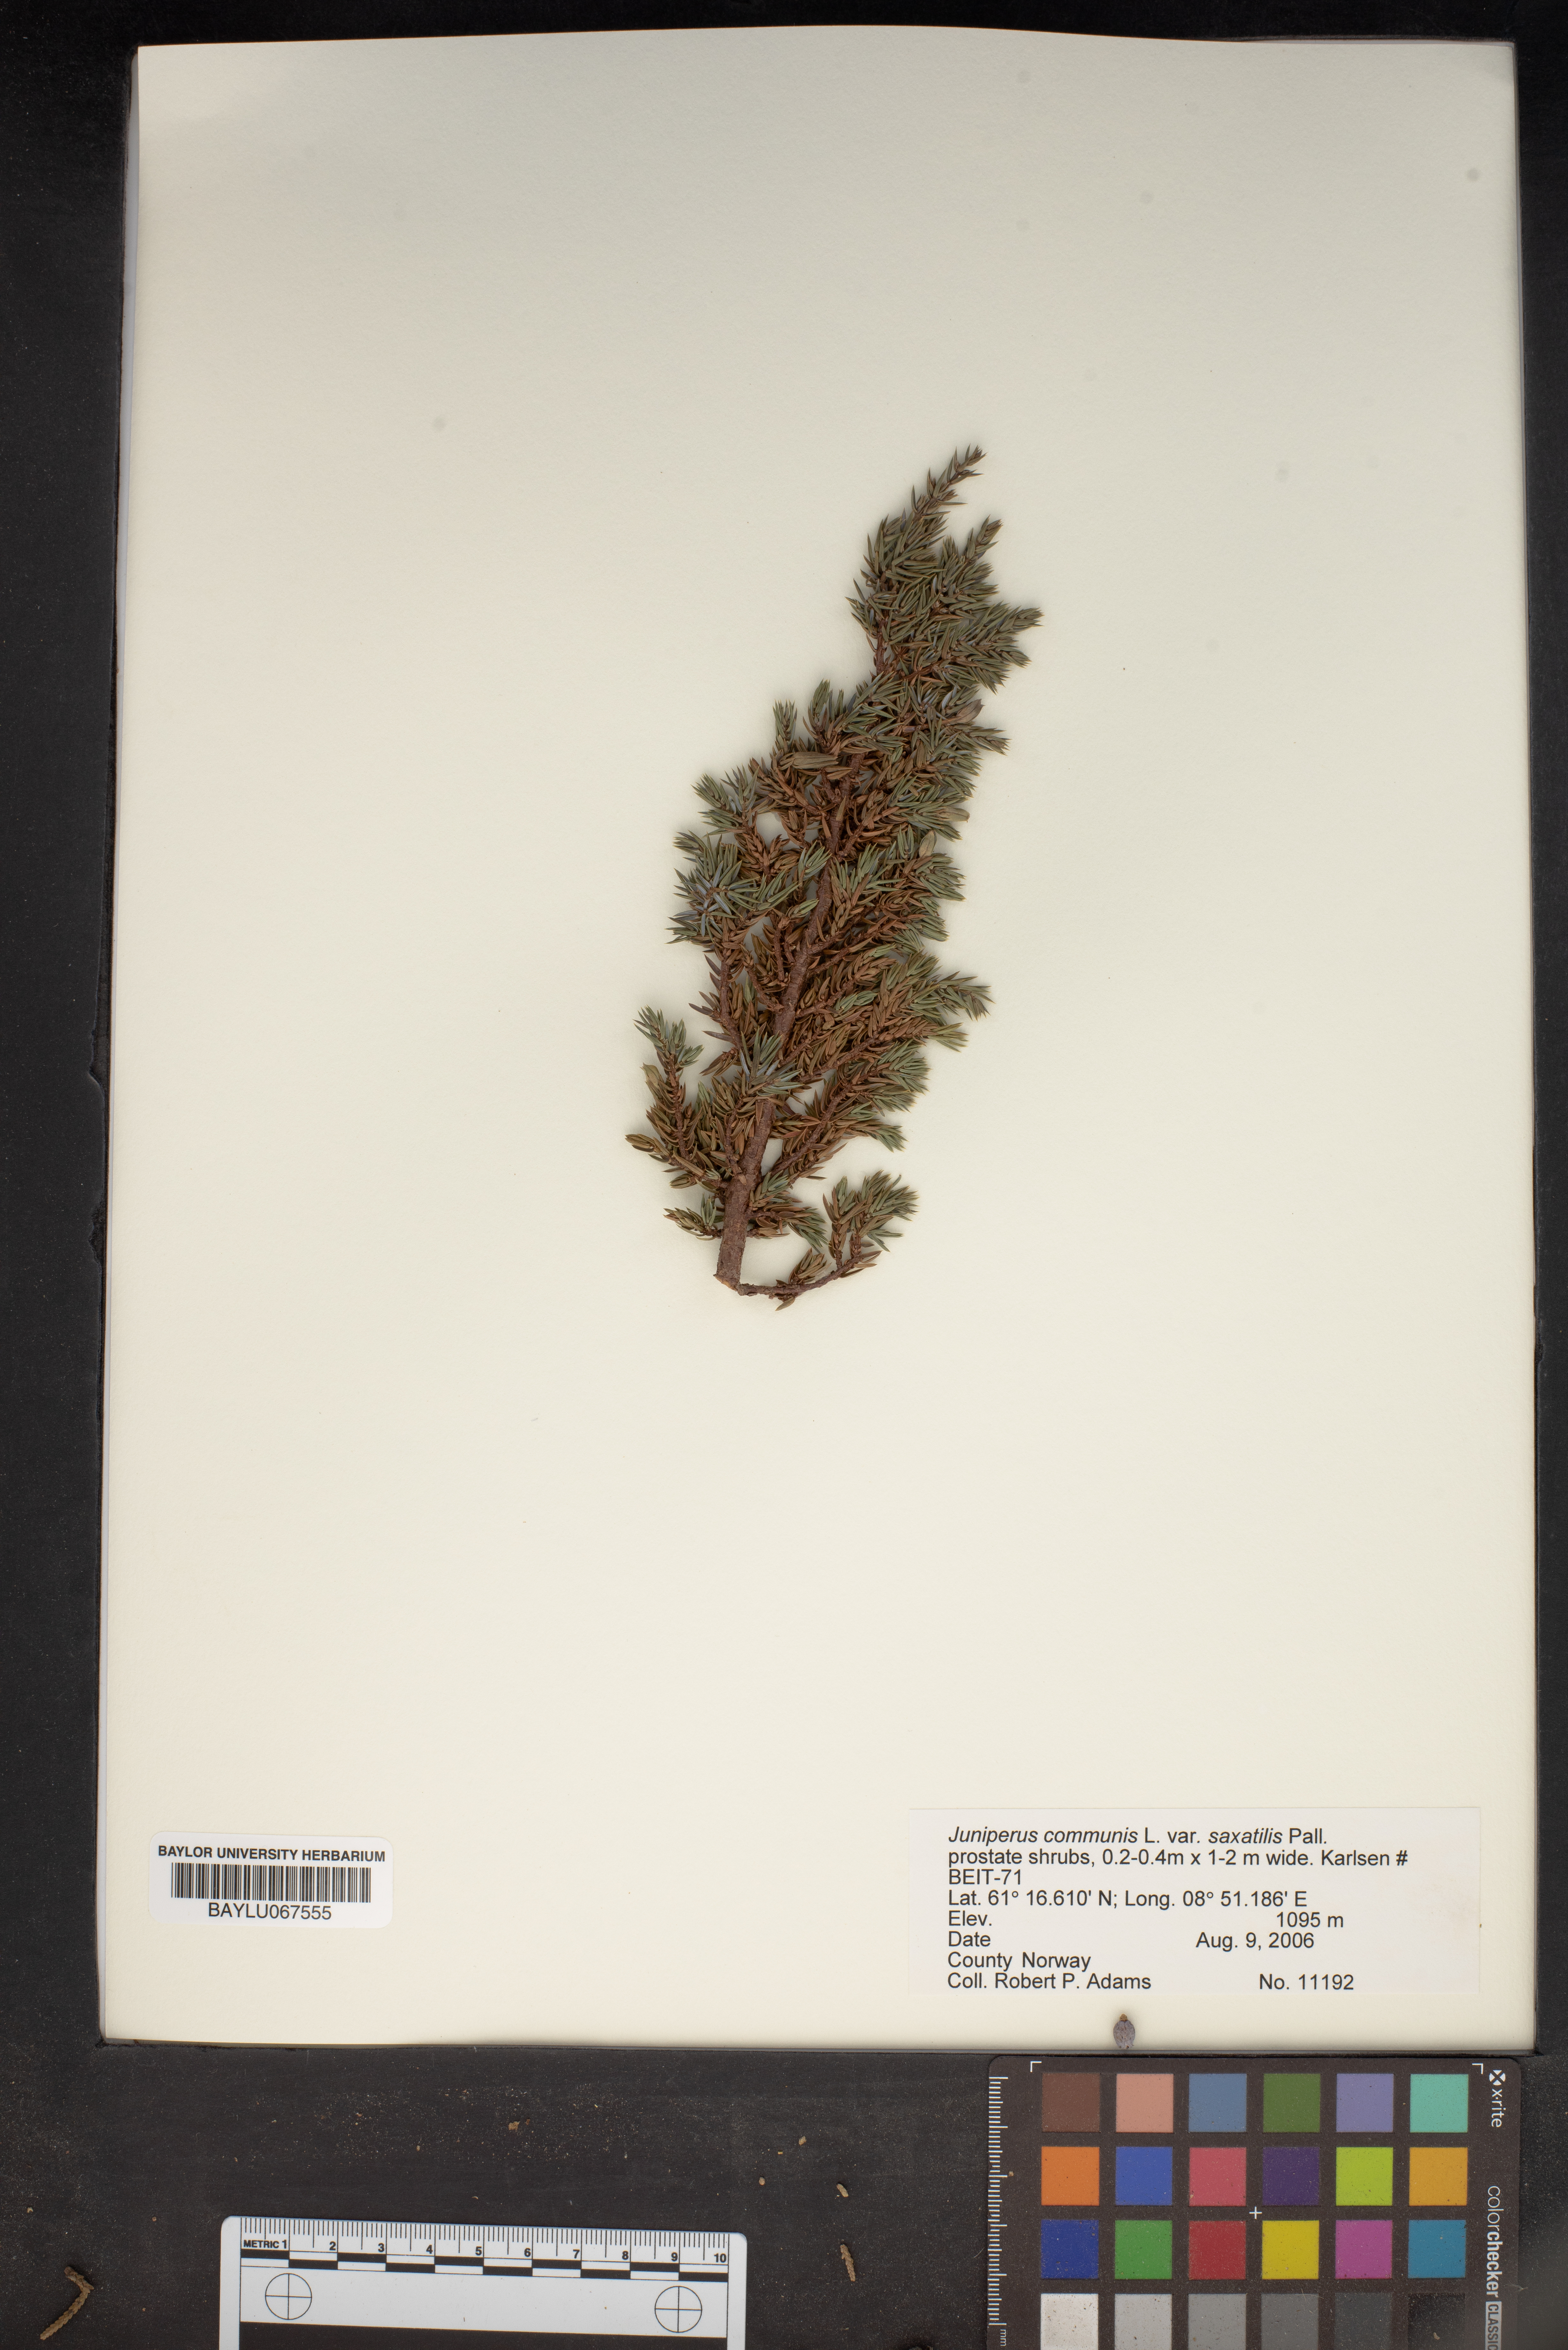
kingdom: Plantae
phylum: Tracheophyta
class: Pinopsida
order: Pinales
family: Cupressaceae
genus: Juniperus
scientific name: Juniperus communis
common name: Common juniper
